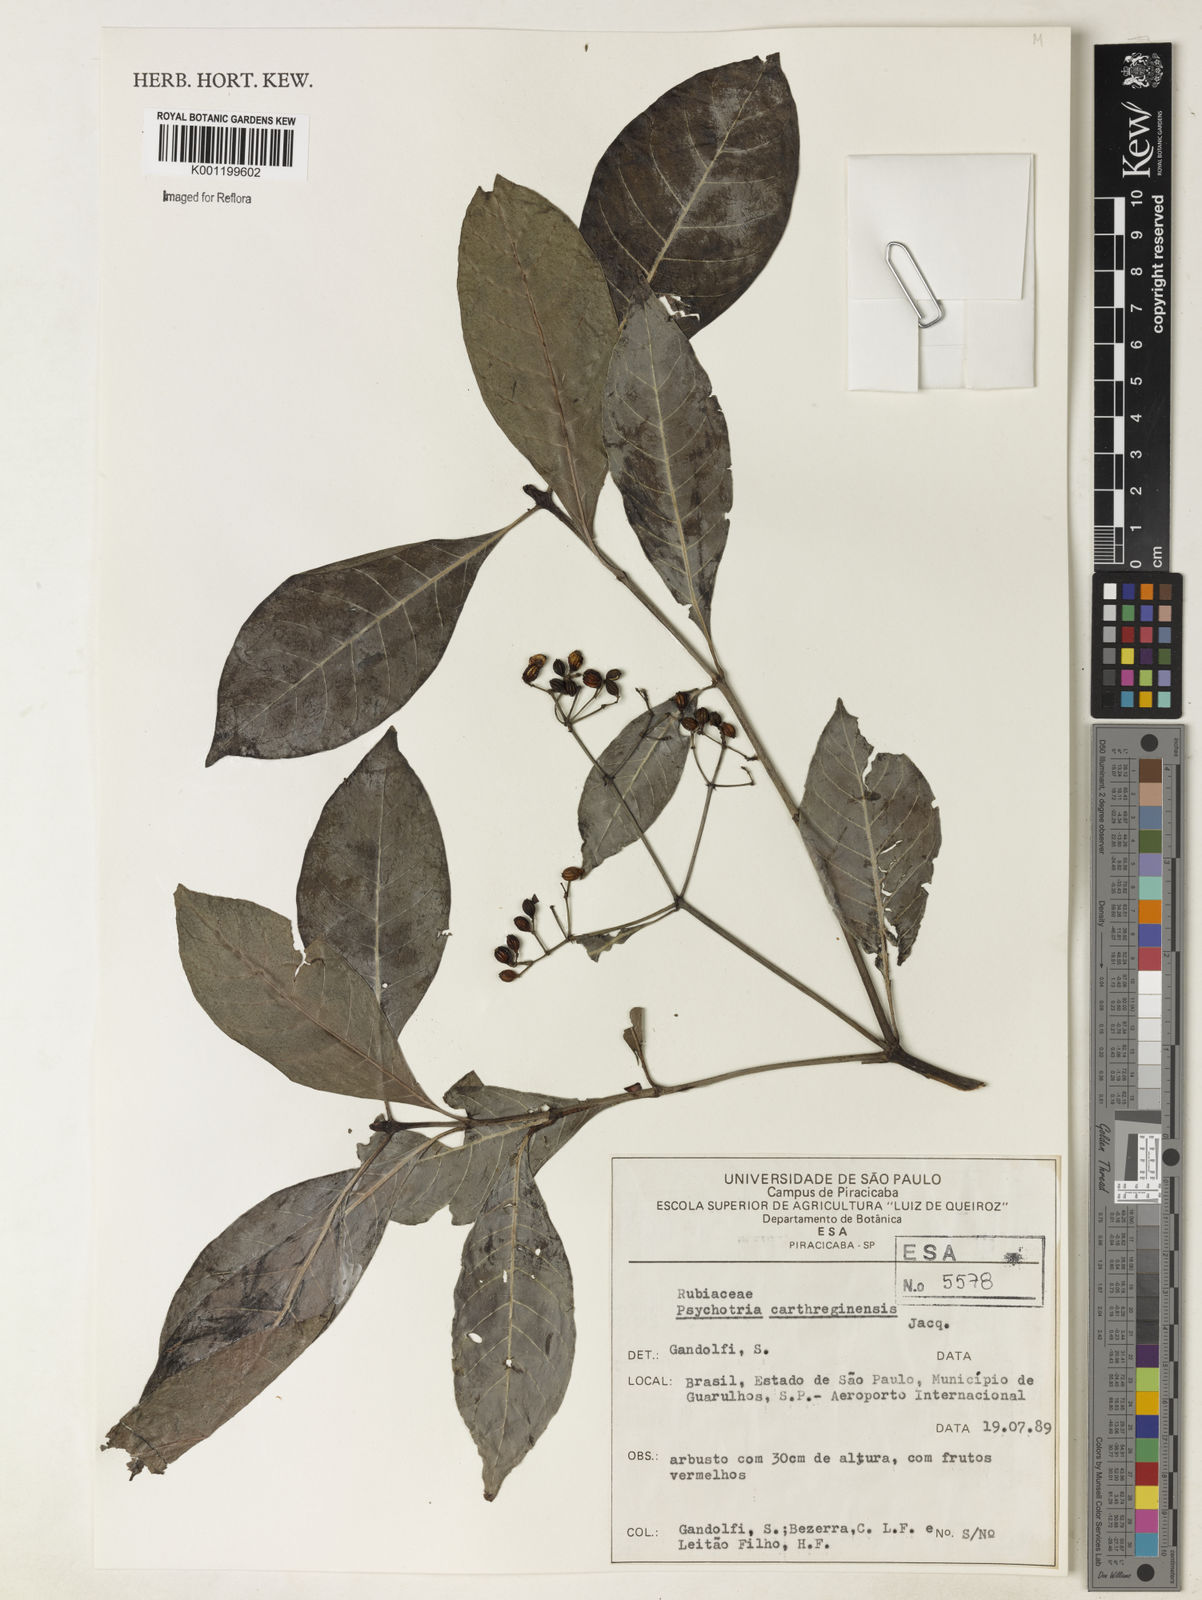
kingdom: Plantae
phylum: Tracheophyta
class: Magnoliopsida
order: Gentianales
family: Rubiaceae
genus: Psychotria
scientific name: Psychotria carthagenensis
